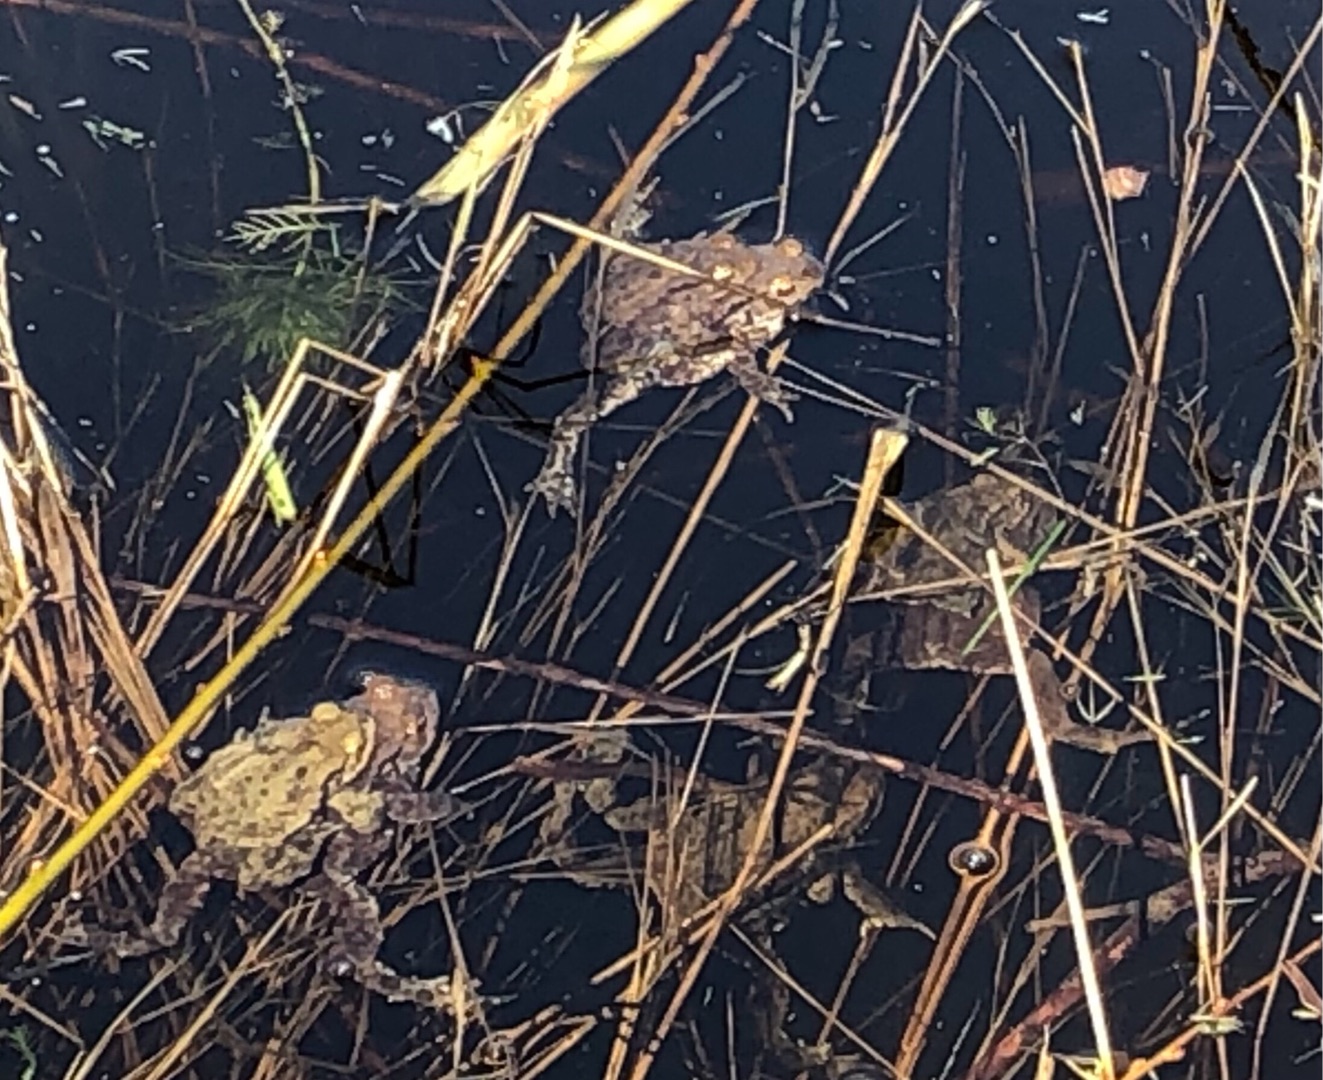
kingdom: Animalia
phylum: Chordata
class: Amphibia
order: Anura
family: Bufonidae
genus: Bufo
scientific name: Bufo bufo
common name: Skrubtudse
